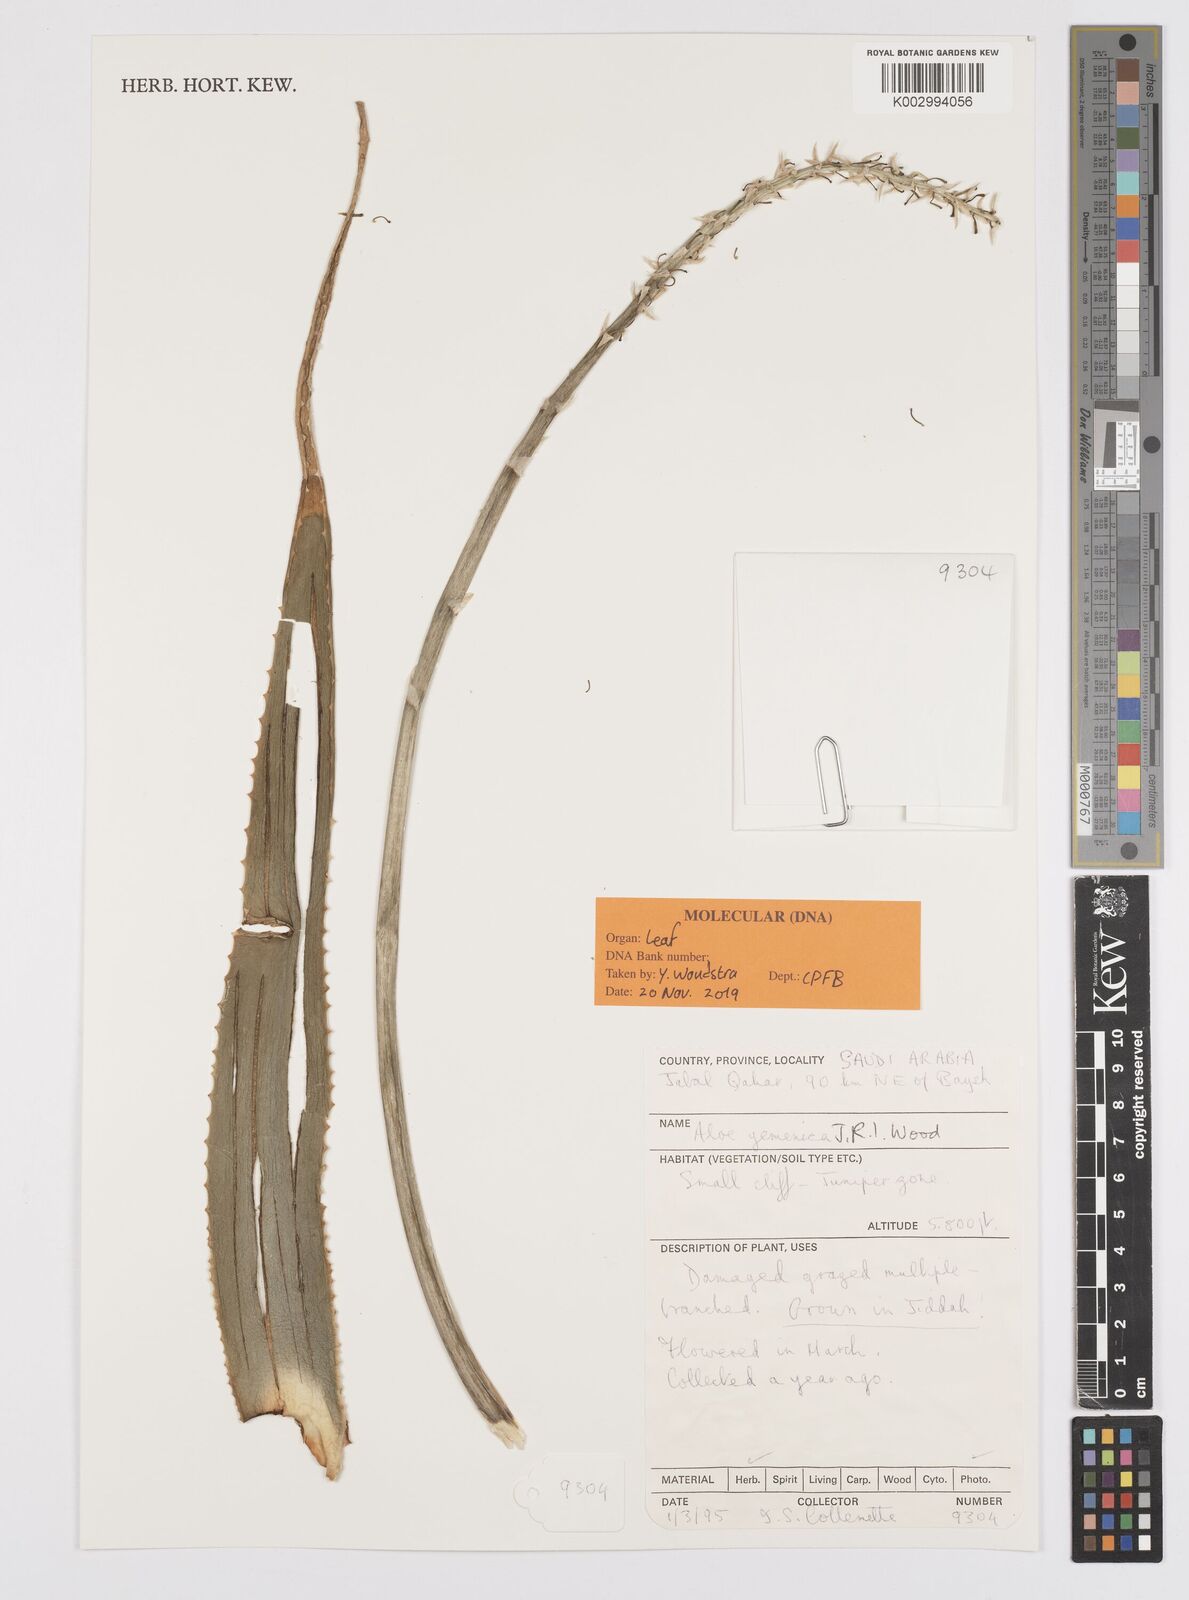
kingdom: Plantae
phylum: Tracheophyta
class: Liliopsida
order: Asparagales
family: Asphodelaceae
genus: Aloe
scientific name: Aloe yemenica
